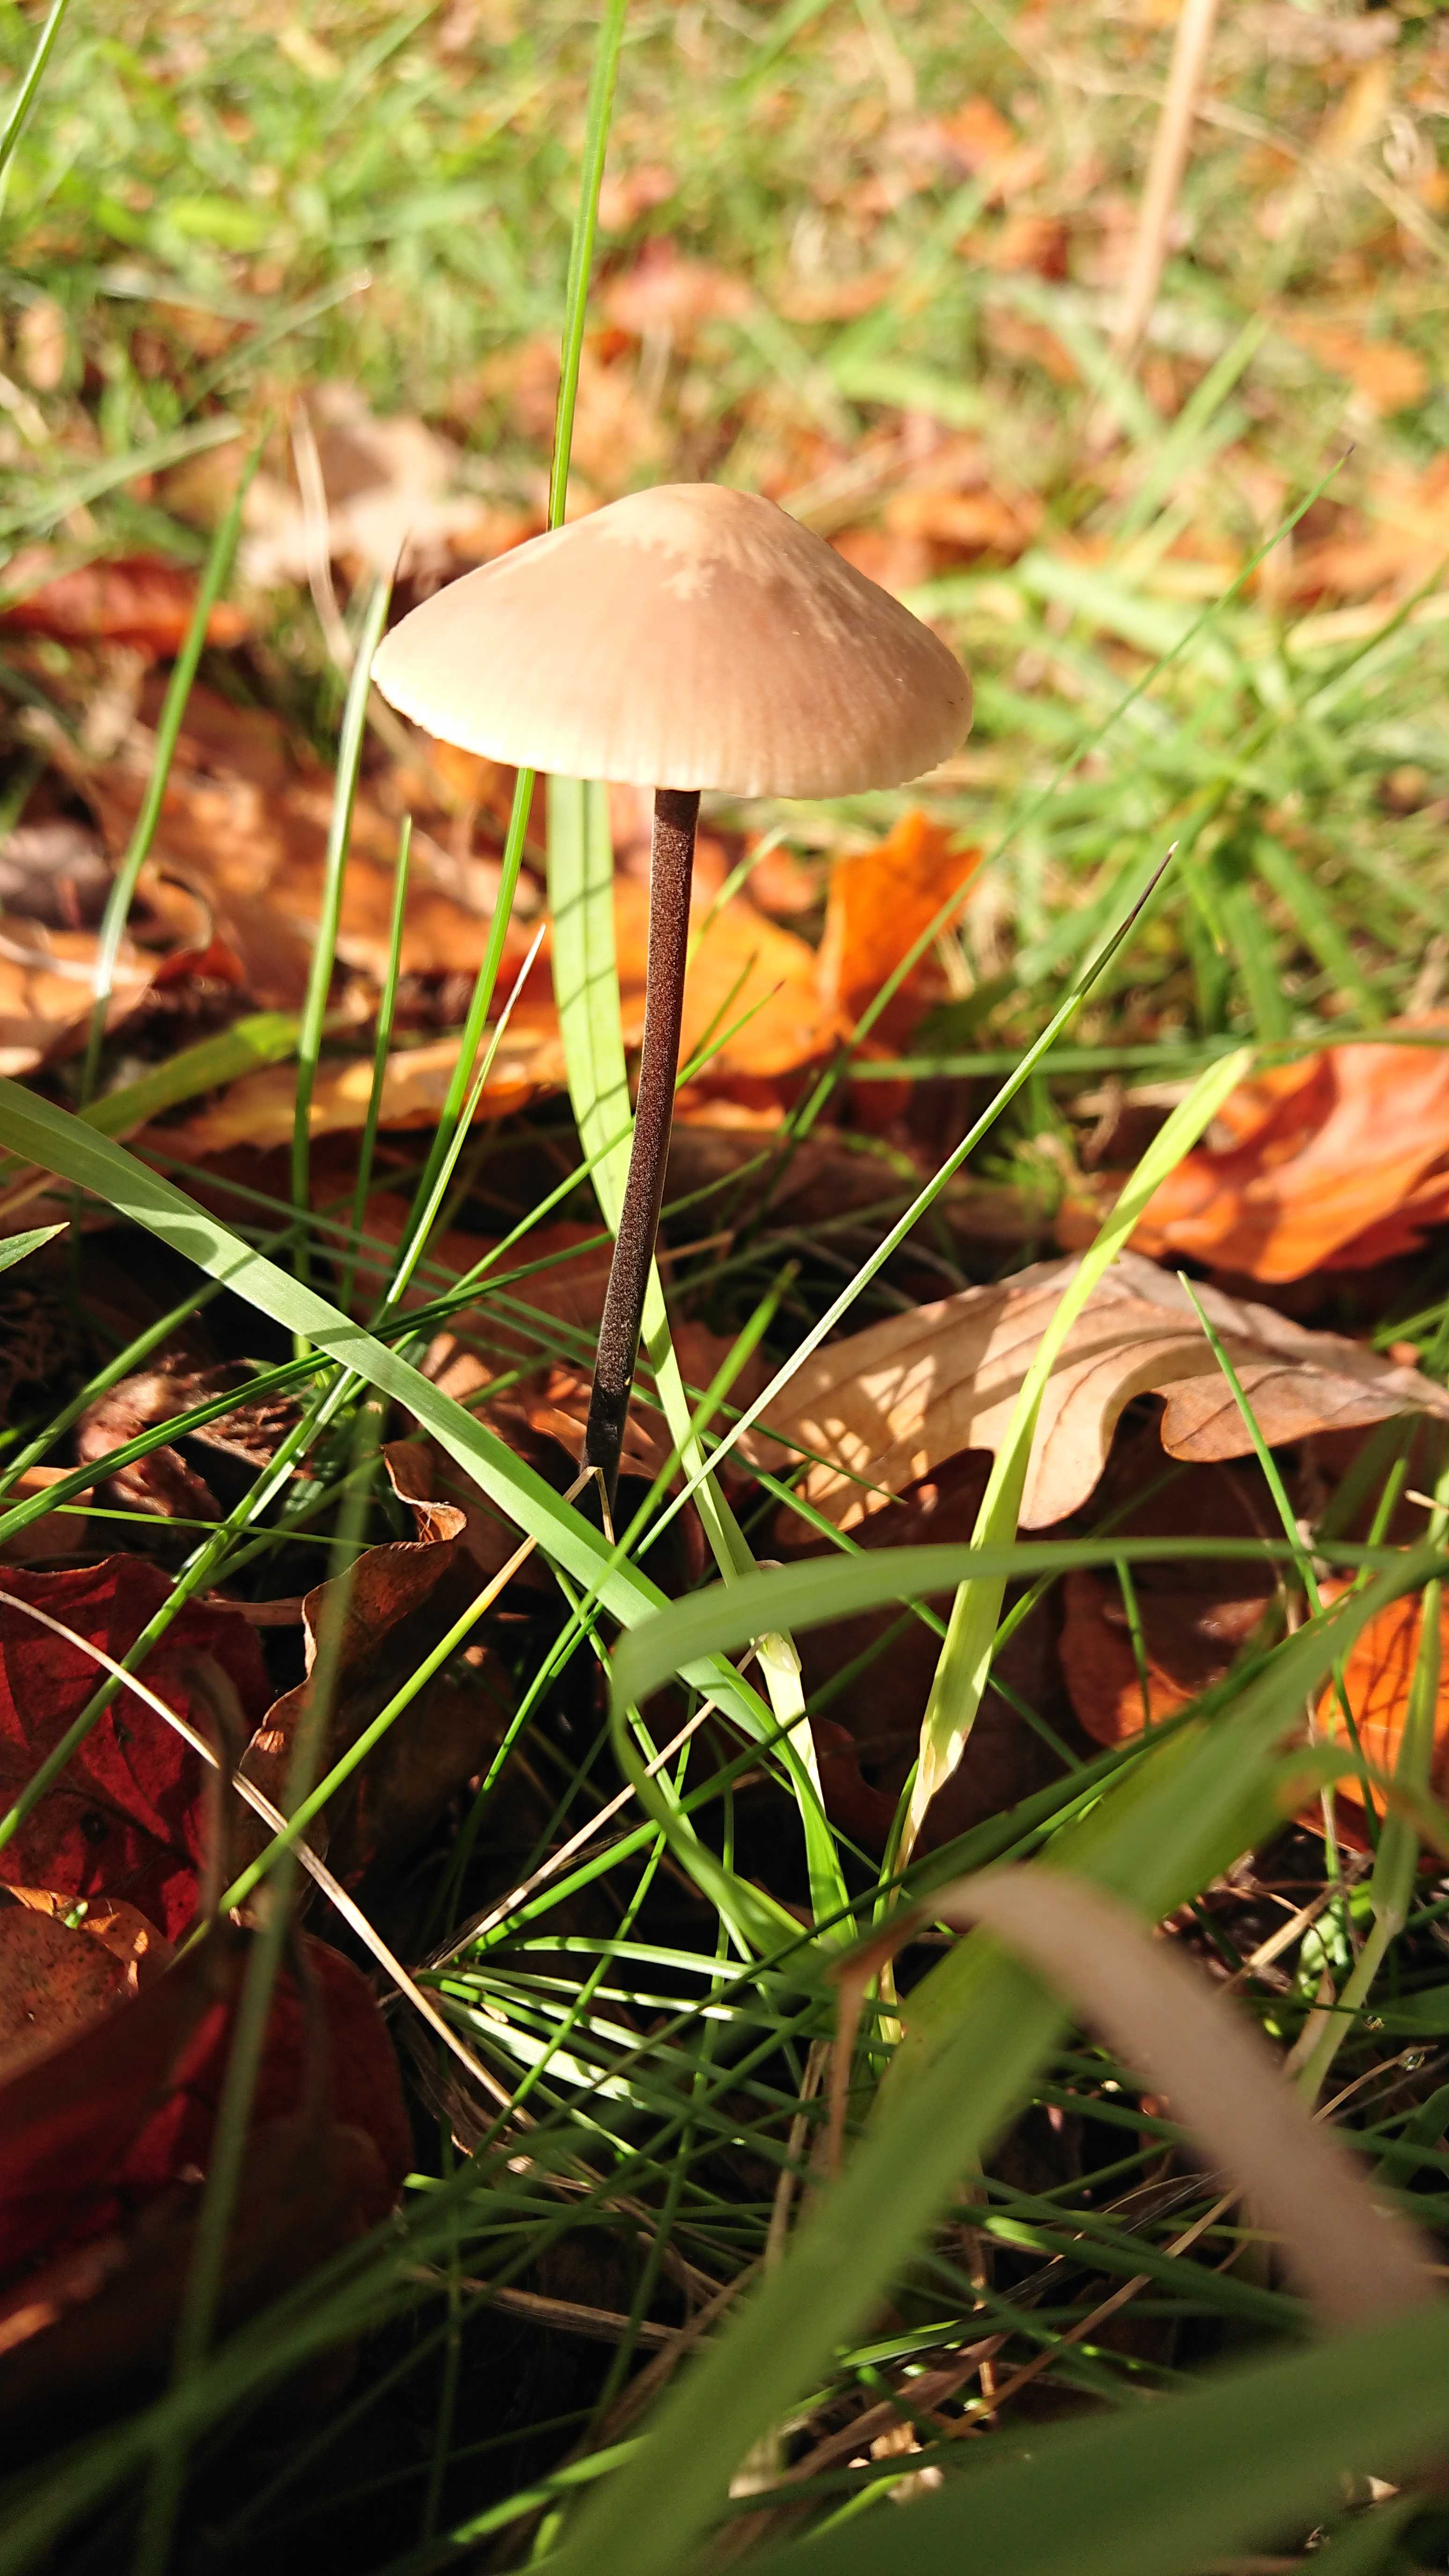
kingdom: Fungi
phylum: Basidiomycota
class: Agaricomycetes
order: Agaricales
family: Omphalotaceae
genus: Mycetinis
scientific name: Mycetinis alliaceus
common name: stor løghat
